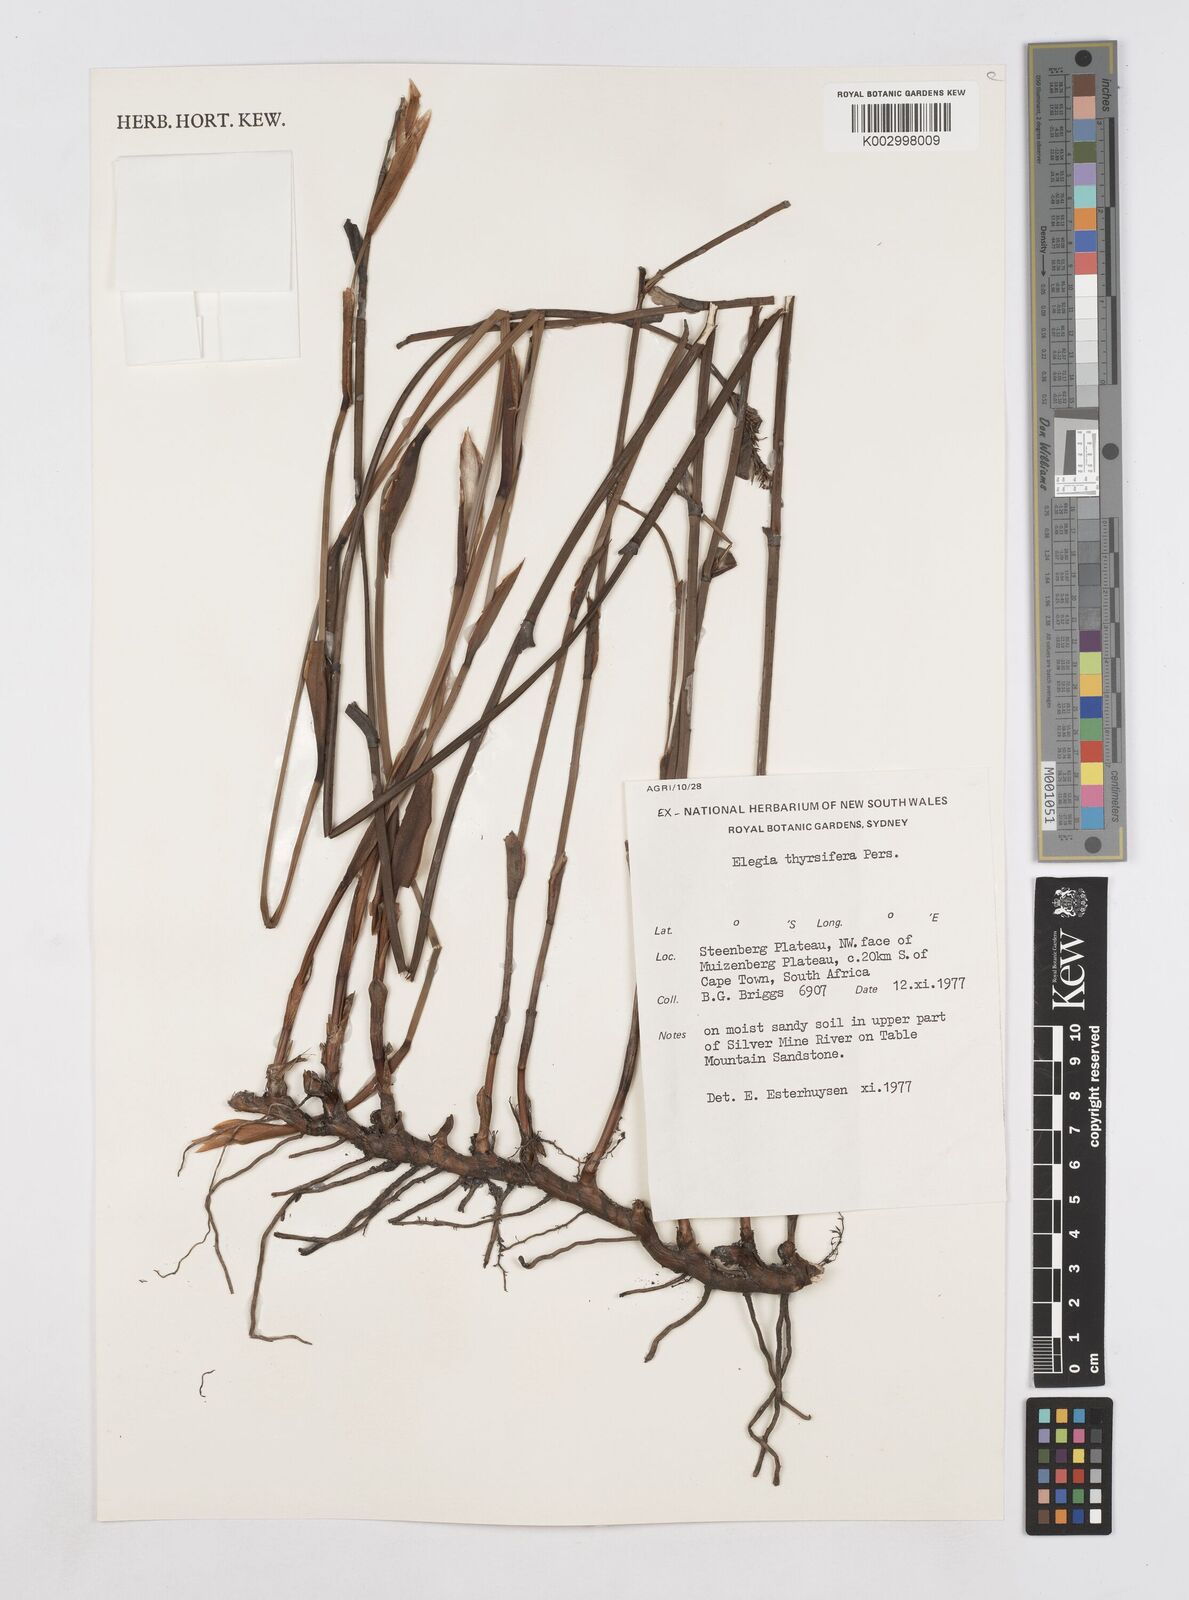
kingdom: Plantae
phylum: Tracheophyta
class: Liliopsida
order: Poales
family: Restionaceae
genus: Elegia
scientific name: Elegia thyrsifera
